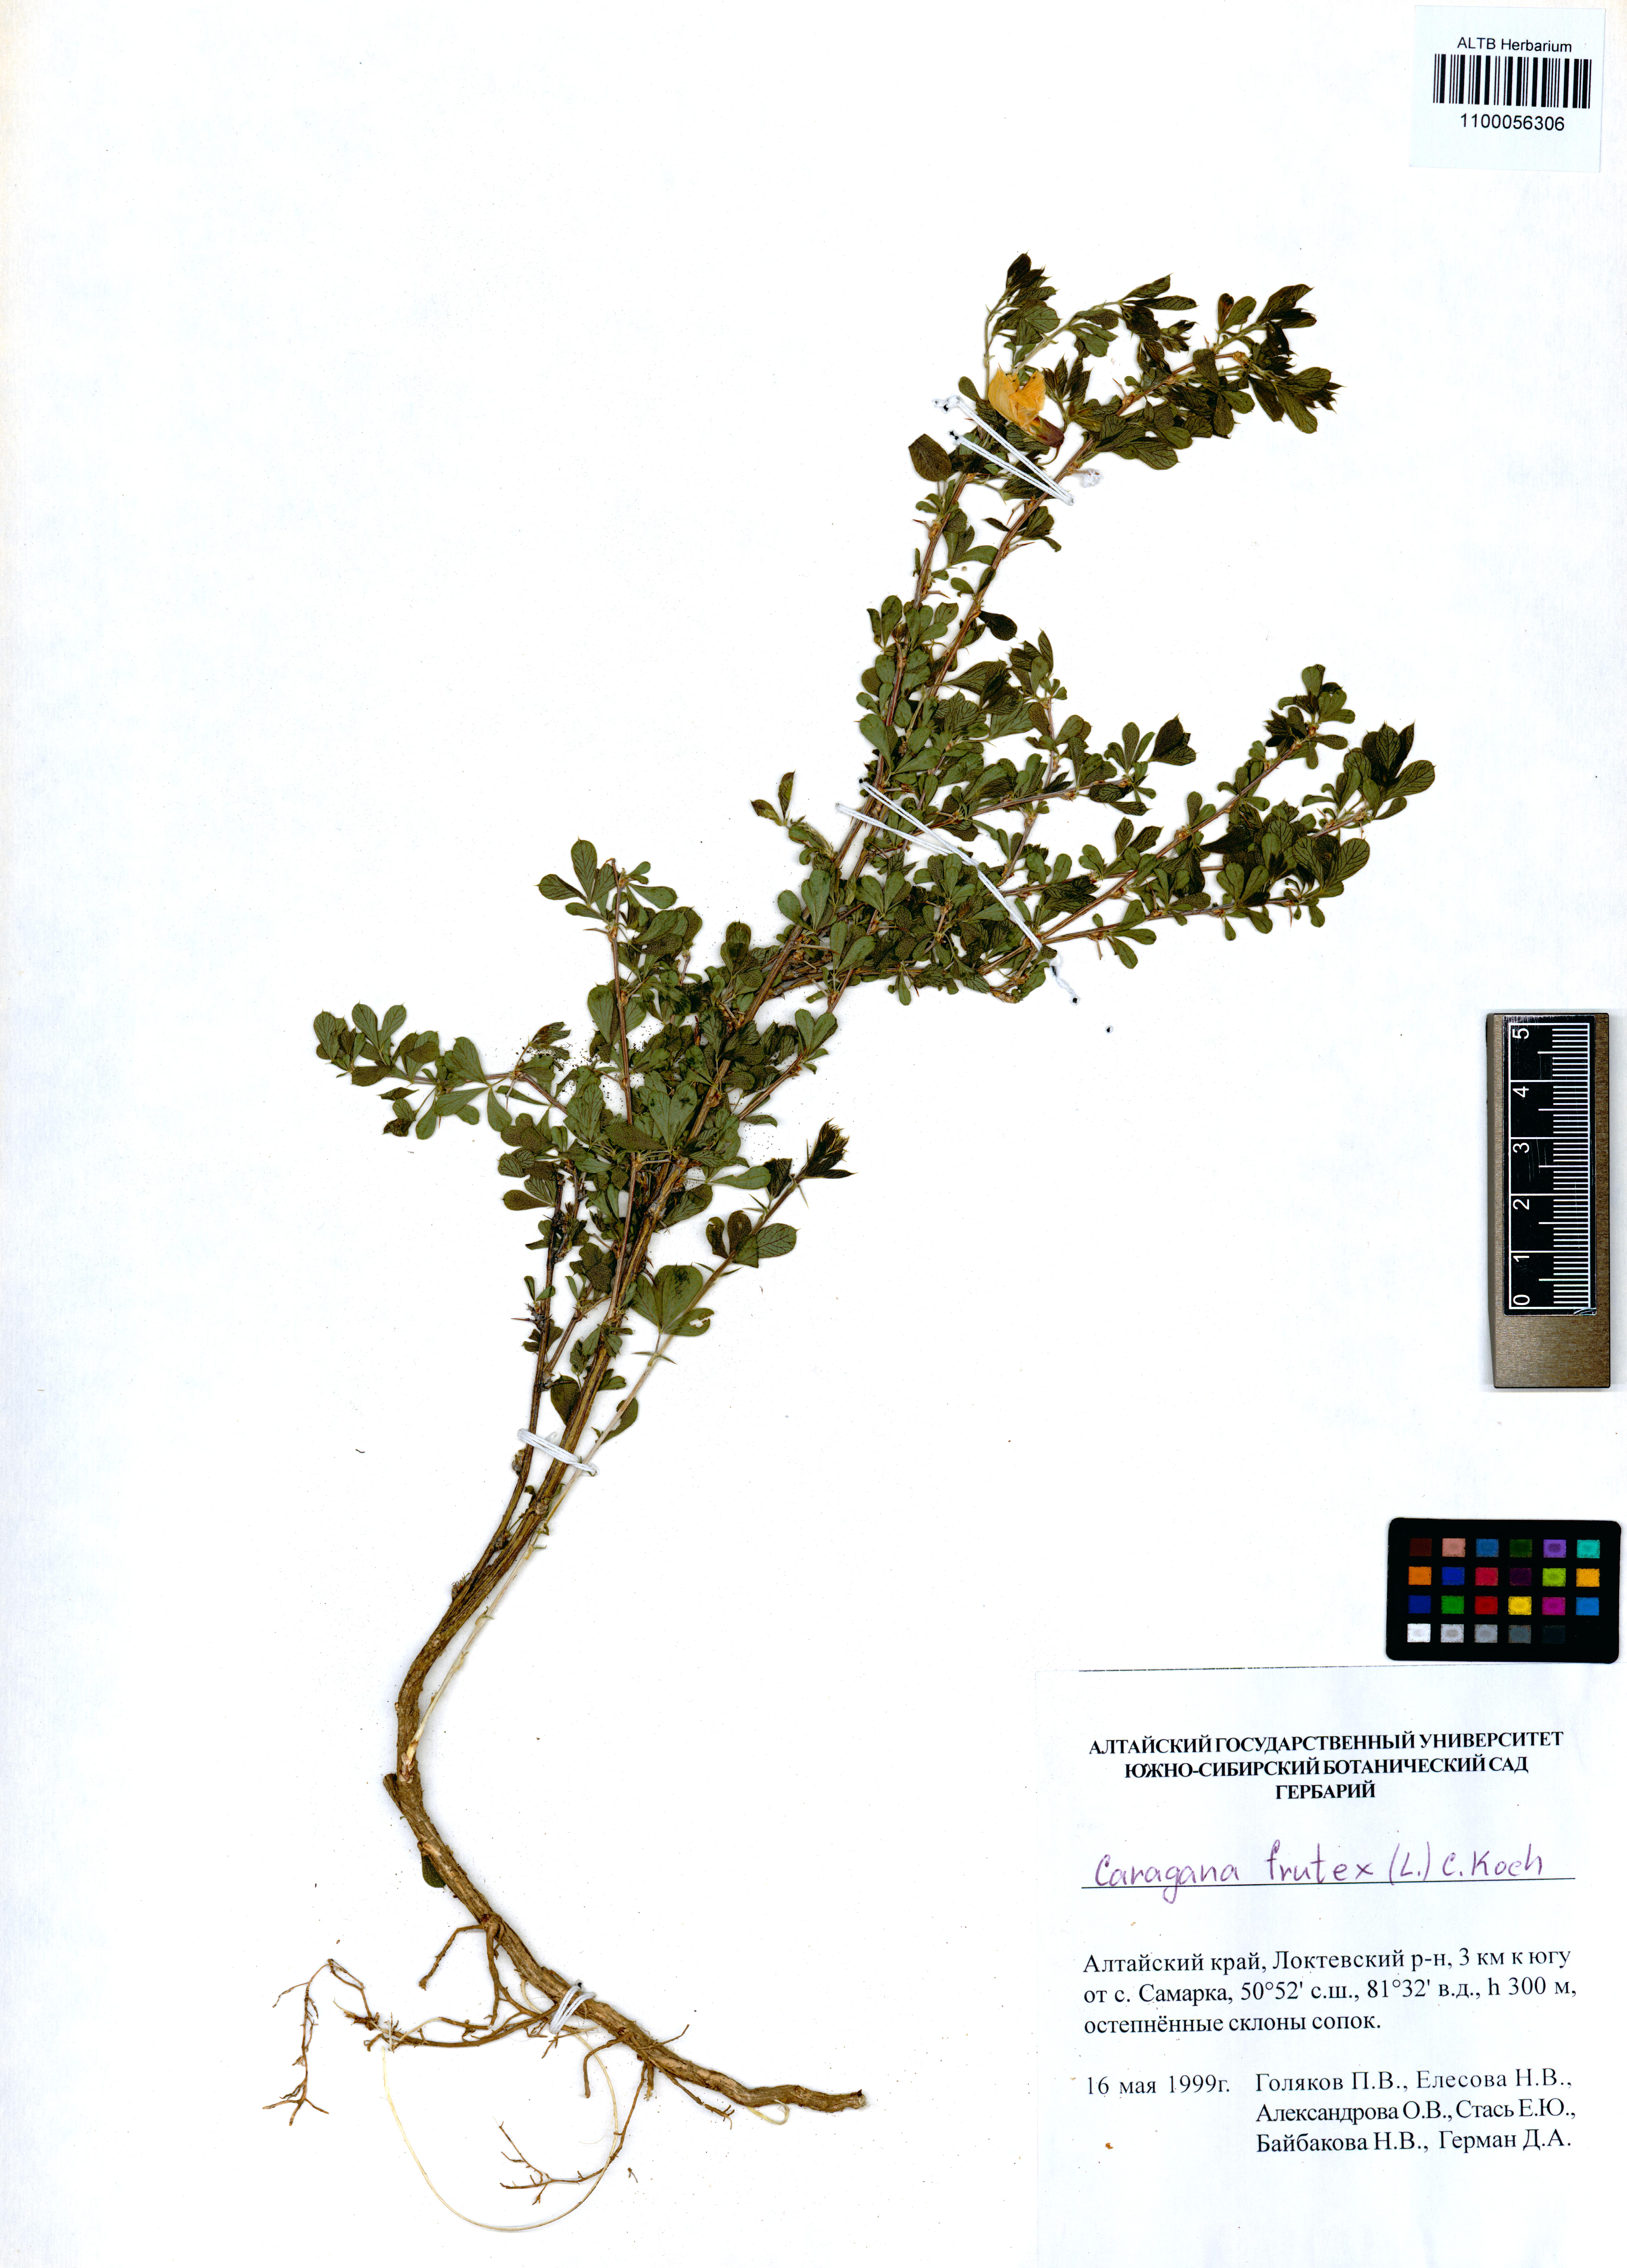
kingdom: Plantae
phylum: Tracheophyta
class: Magnoliopsida
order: Fabales
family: Fabaceae
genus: Caragana
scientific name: Caragana frutex
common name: Russian peashrub
